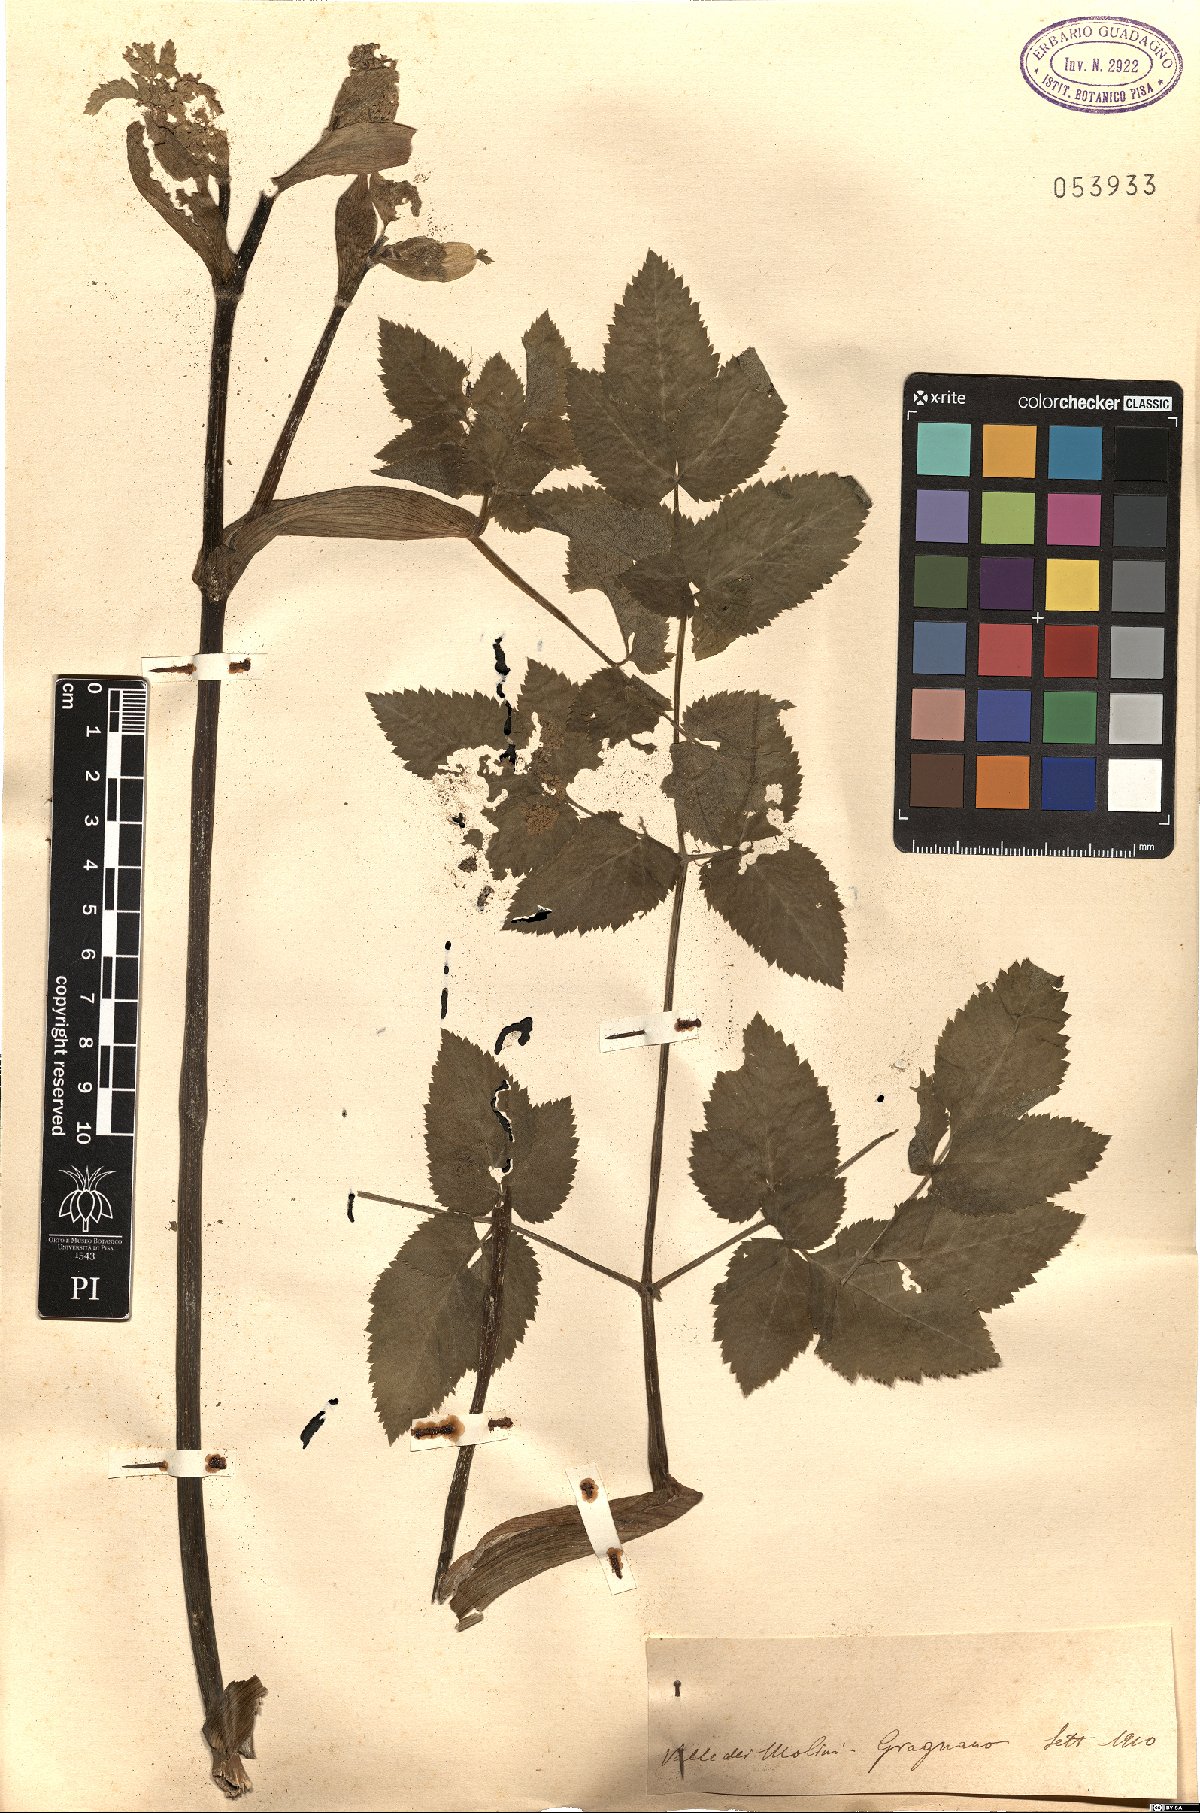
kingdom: Plantae
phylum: Tracheophyta
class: Magnoliopsida
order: Apiales
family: Apiaceae
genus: Angelica
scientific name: Angelica
